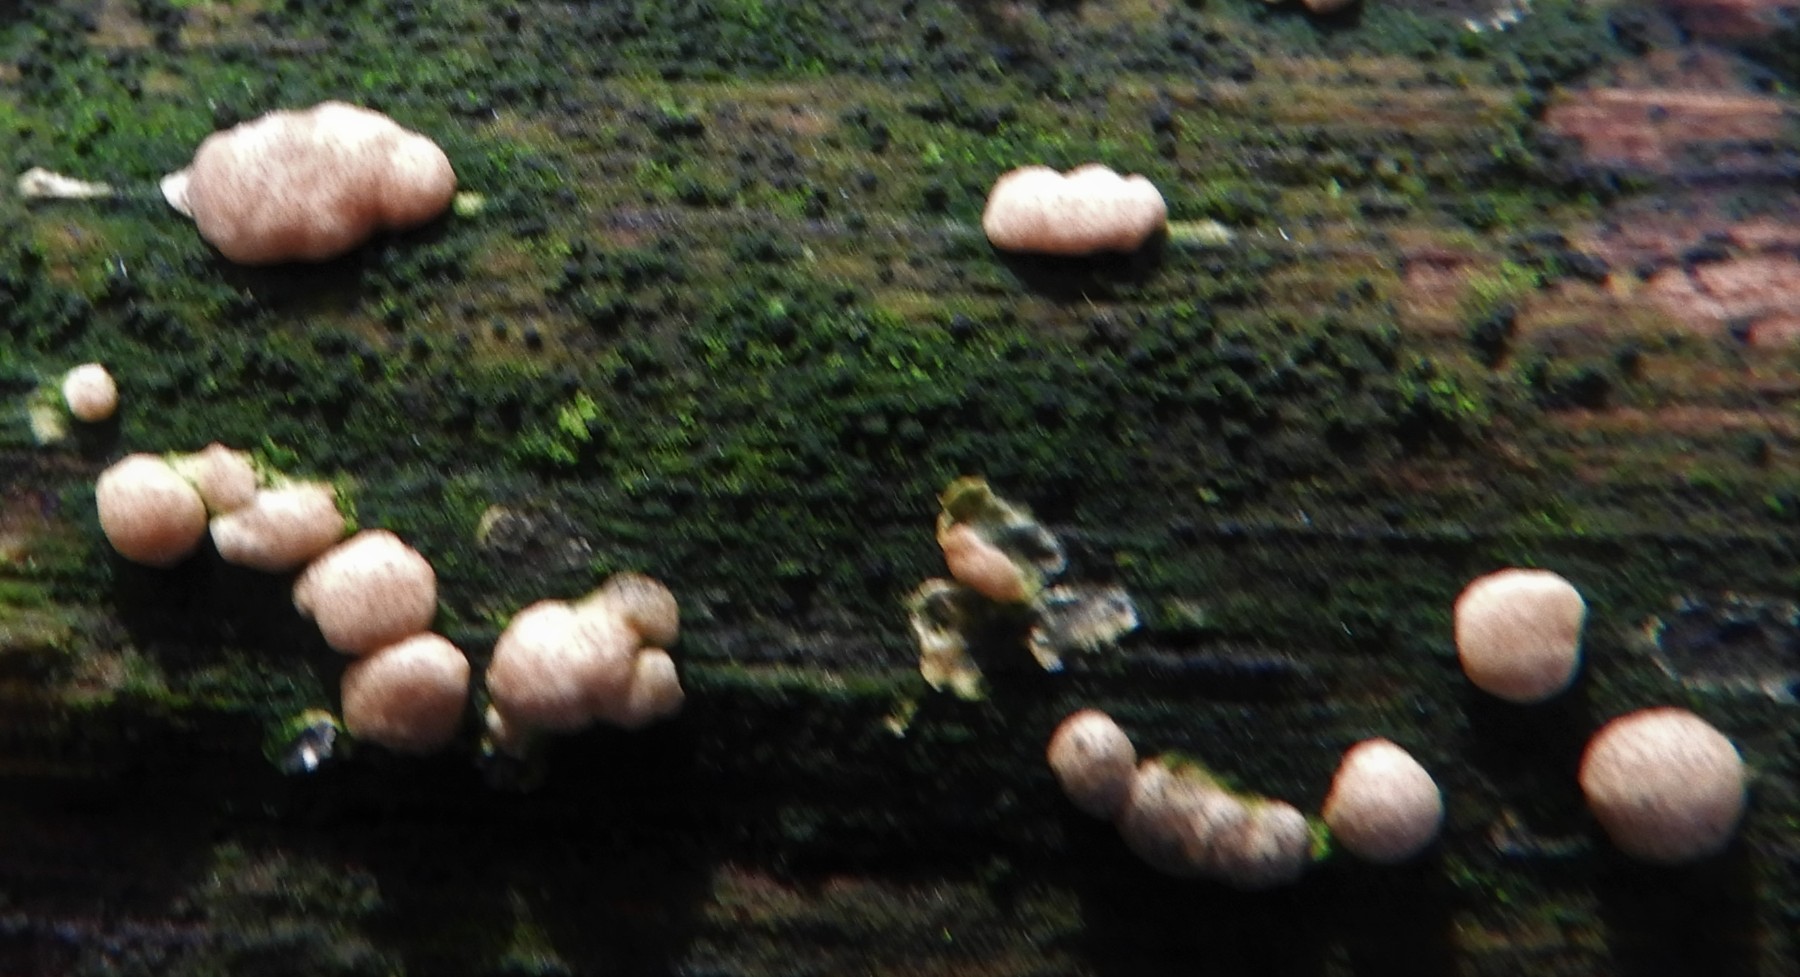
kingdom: Fungi
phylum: Ascomycota
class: Sordariomycetes
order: Hypocreales
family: Hypocreaceae
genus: Trichoderma
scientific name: Trichoderma europaeum
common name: rosabrun kødkerne
